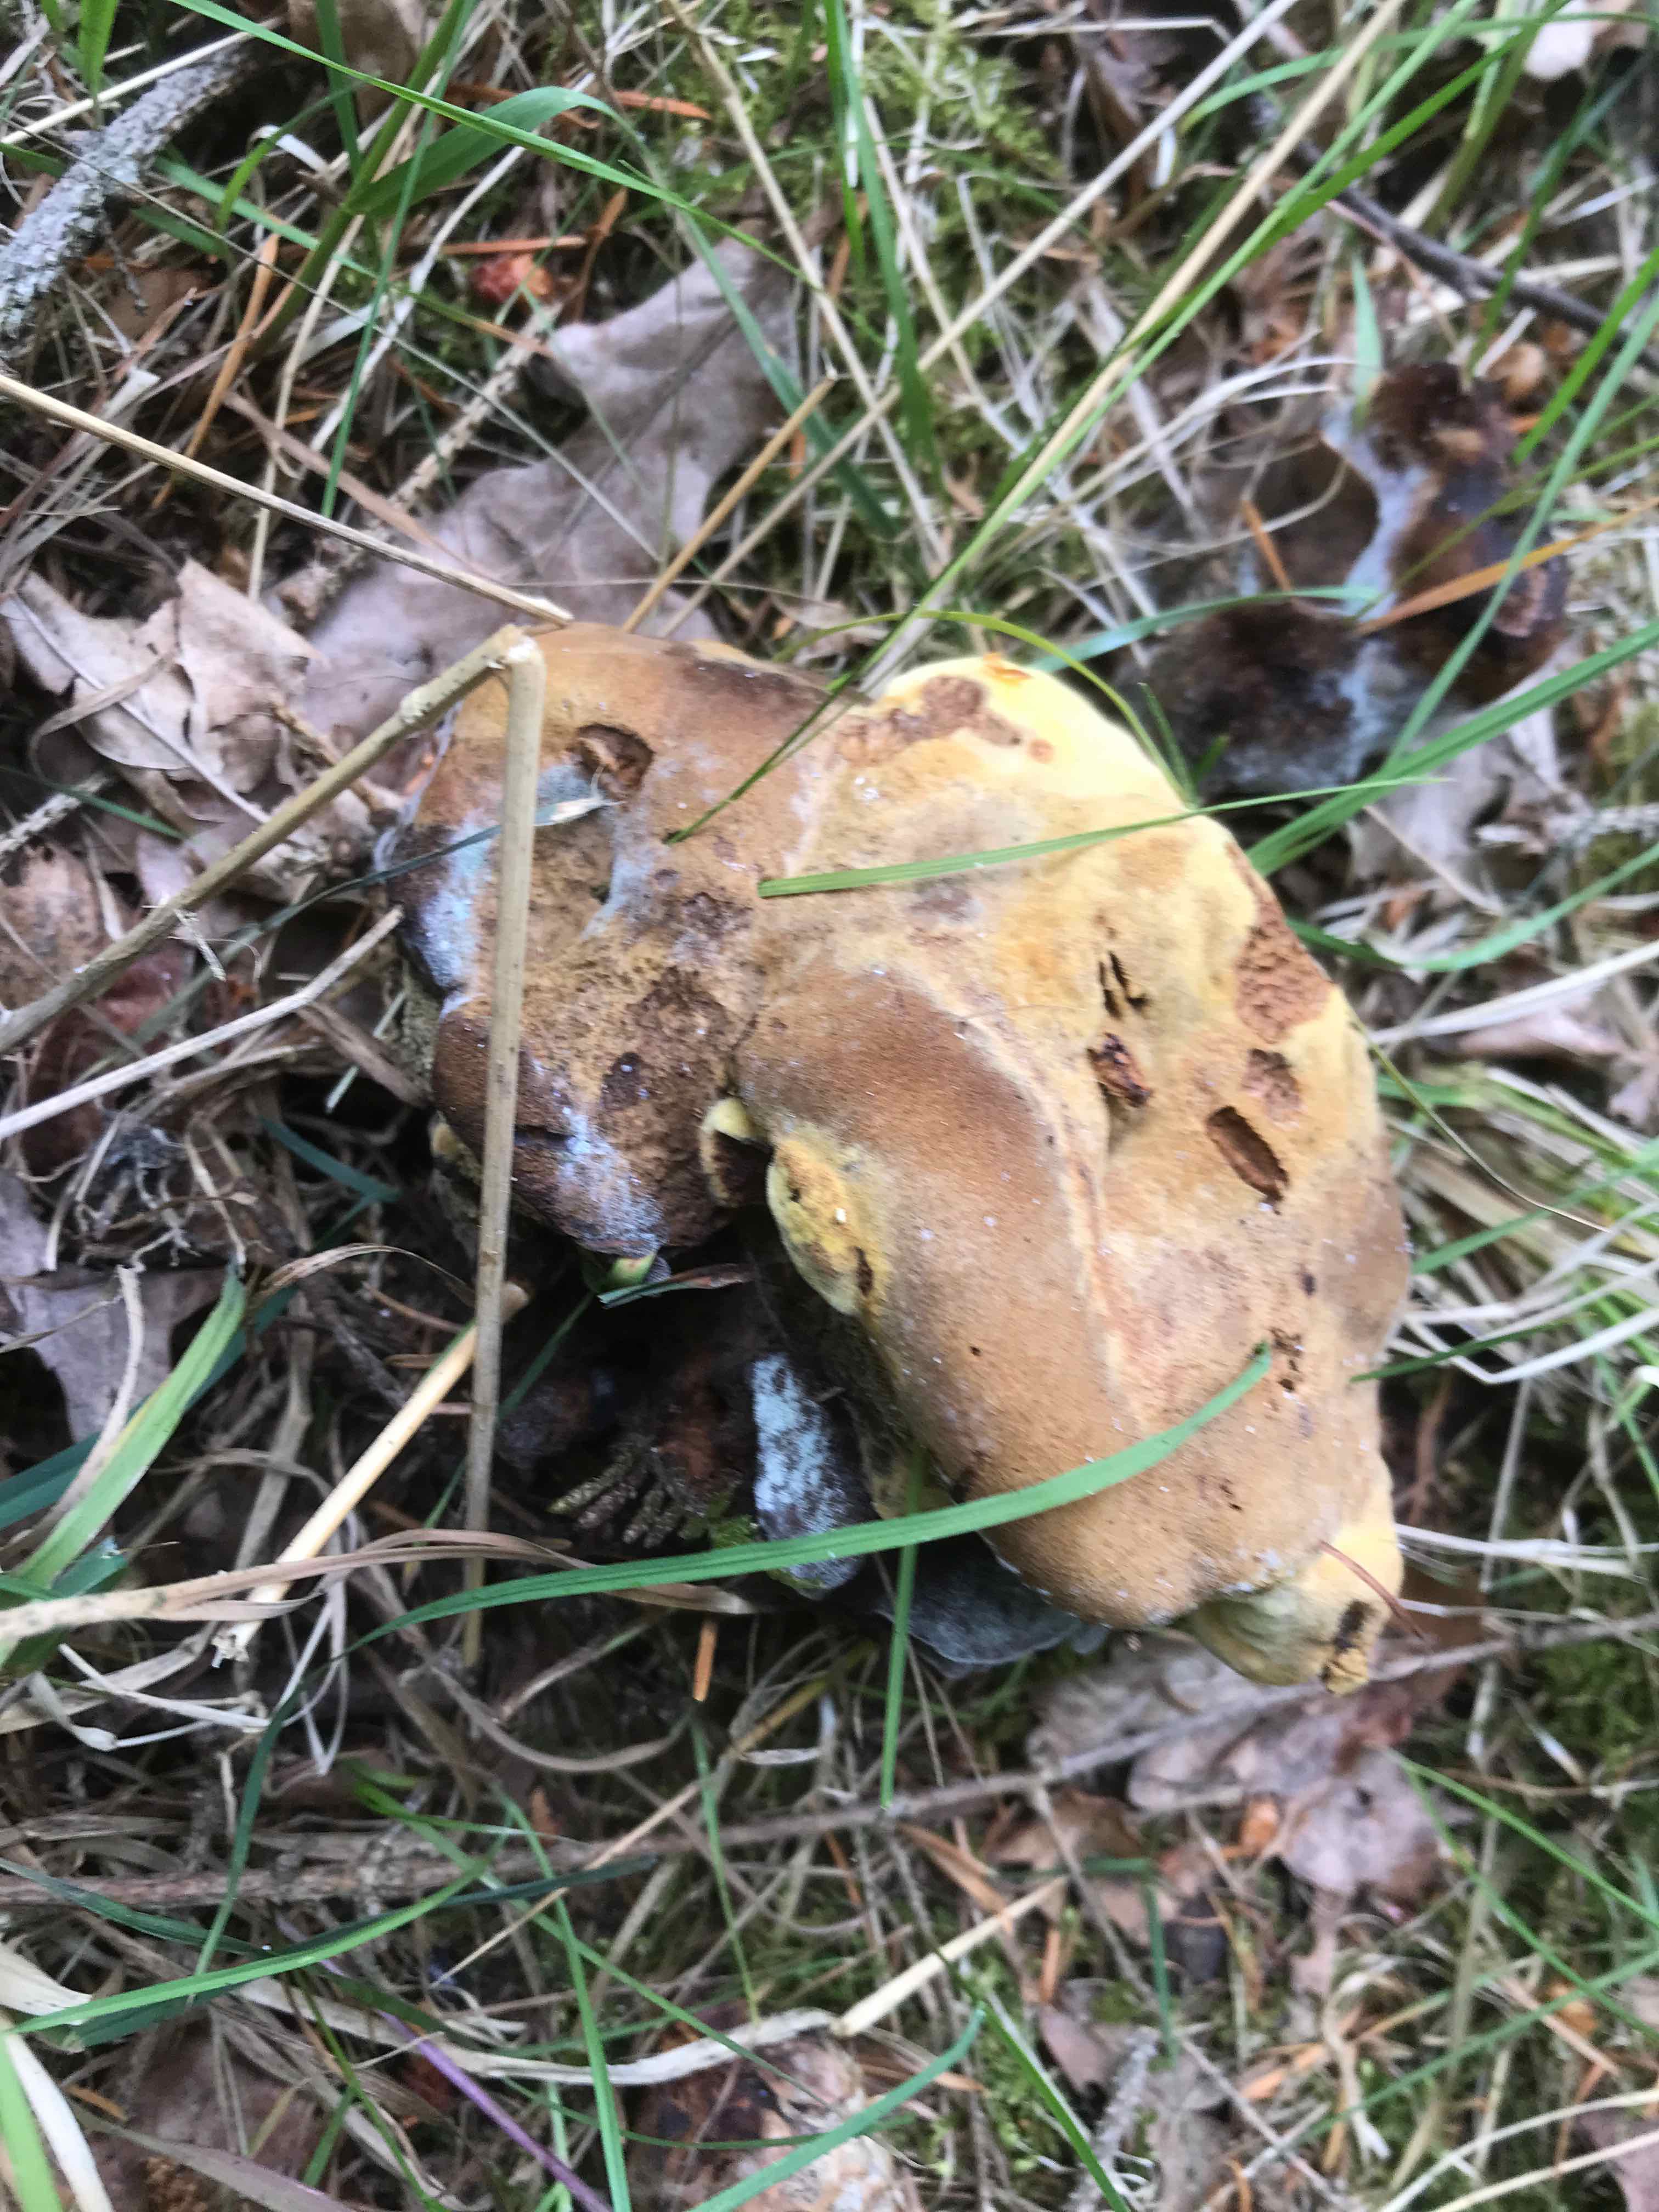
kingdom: Fungi
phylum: Basidiomycota
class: Agaricomycetes
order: Polyporales
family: Laetiporaceae
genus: Phaeolus
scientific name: Phaeolus schweinitzii
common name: brunporesvamp
